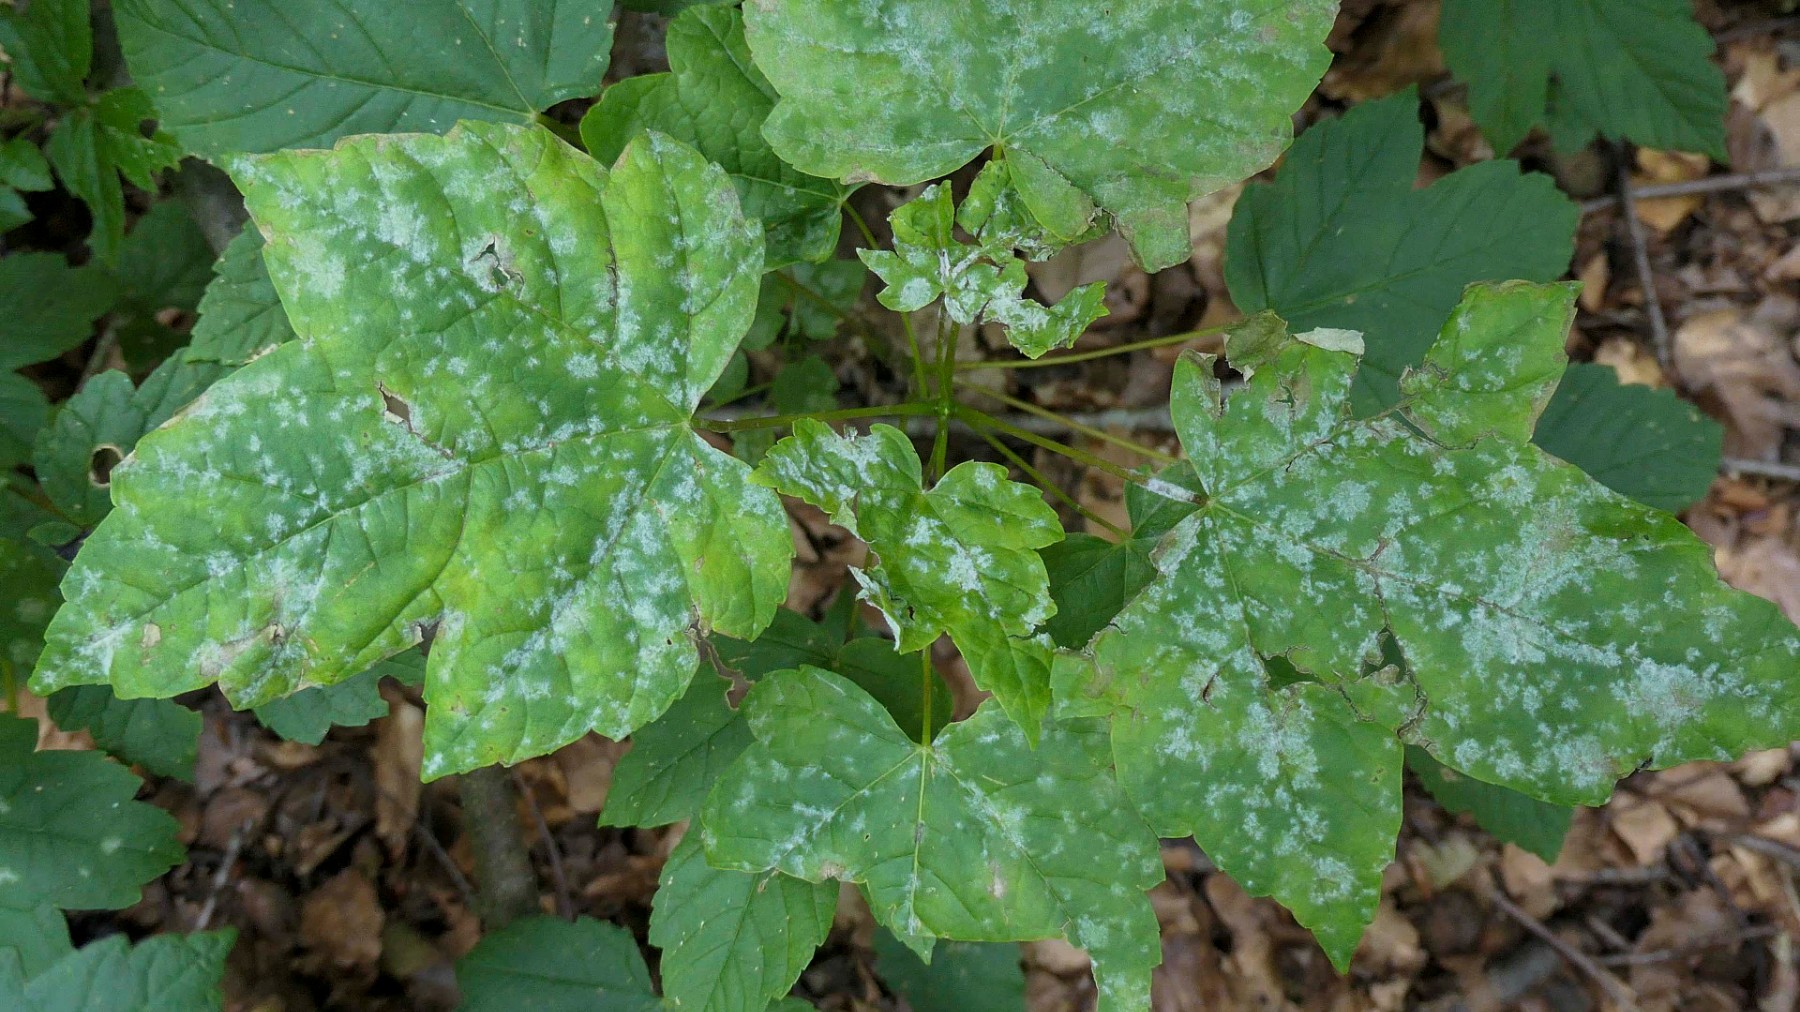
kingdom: Fungi
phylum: Ascomycota
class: Leotiomycetes
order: Helotiales
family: Erysiphaceae
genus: Sawadaea
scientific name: Sawadaea bicornis
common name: Maple mildew
